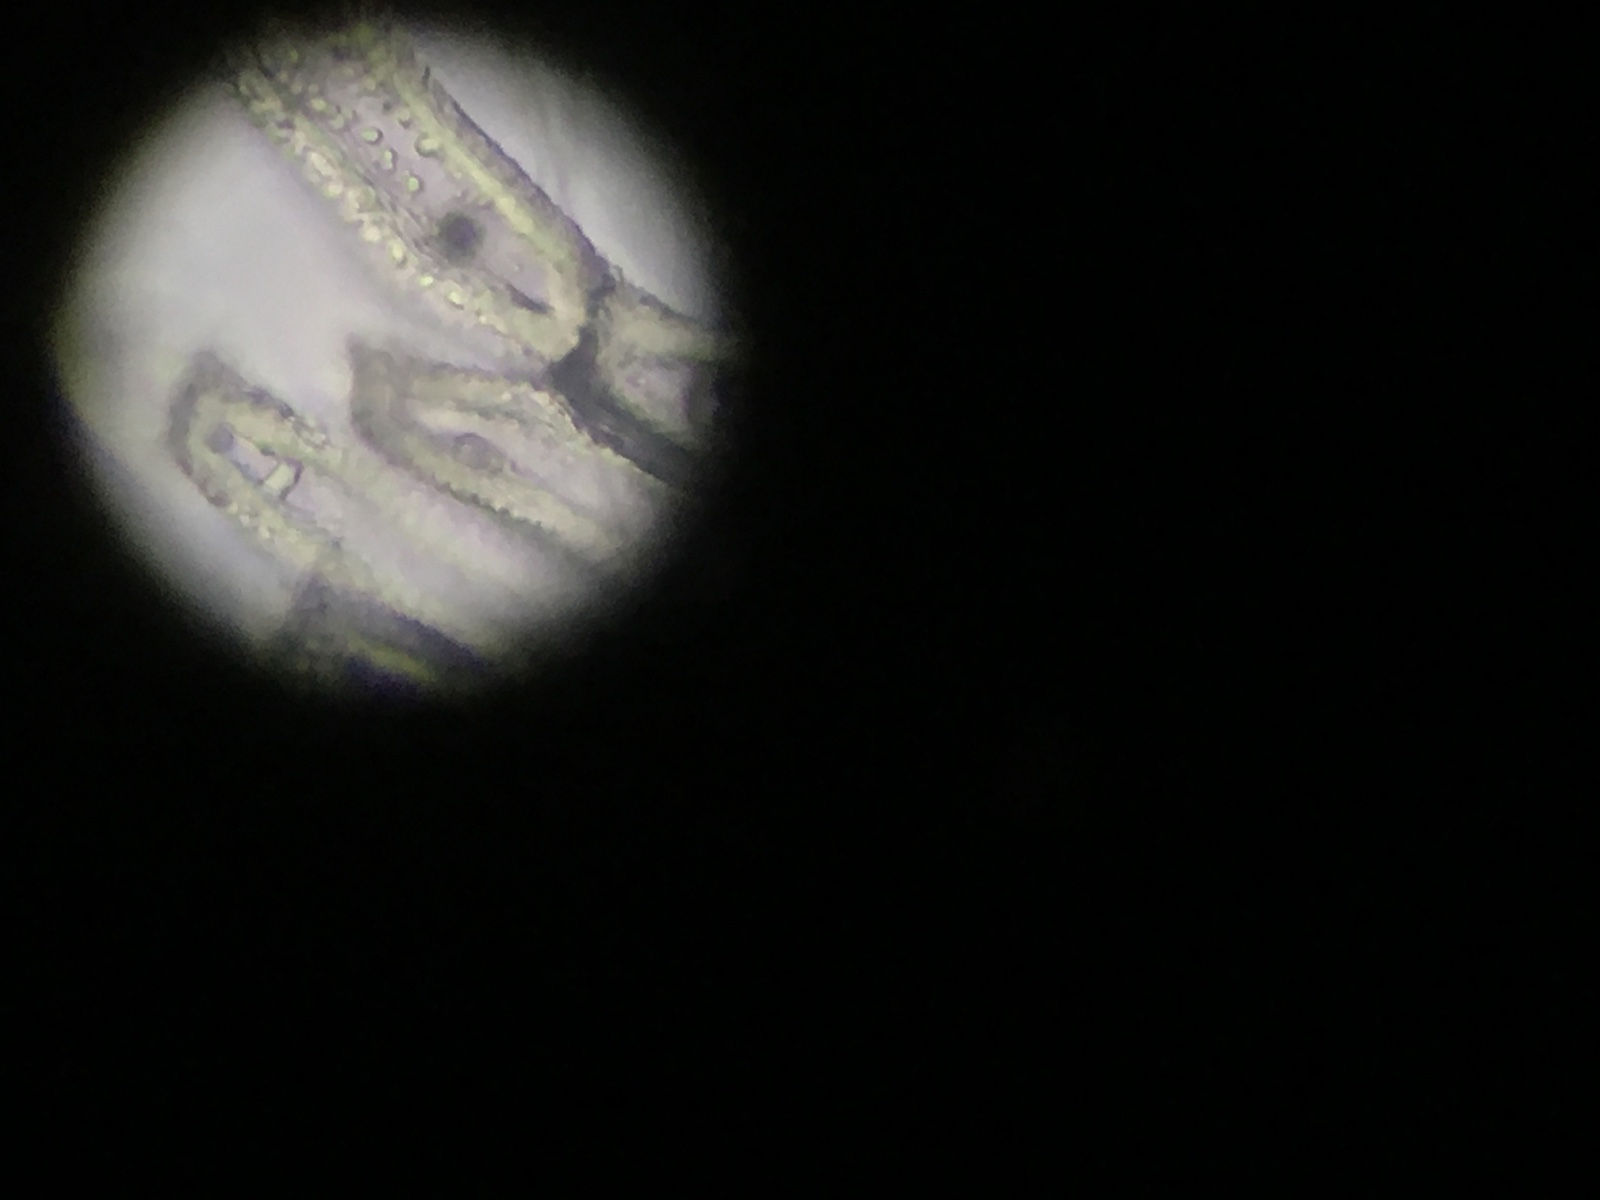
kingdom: Fungi
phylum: Basidiomycota
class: Pucciniomycetes
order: Pucciniales
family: Gymnosporangiaceae
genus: Gymnosporangium
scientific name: Gymnosporangium clavariiforme
